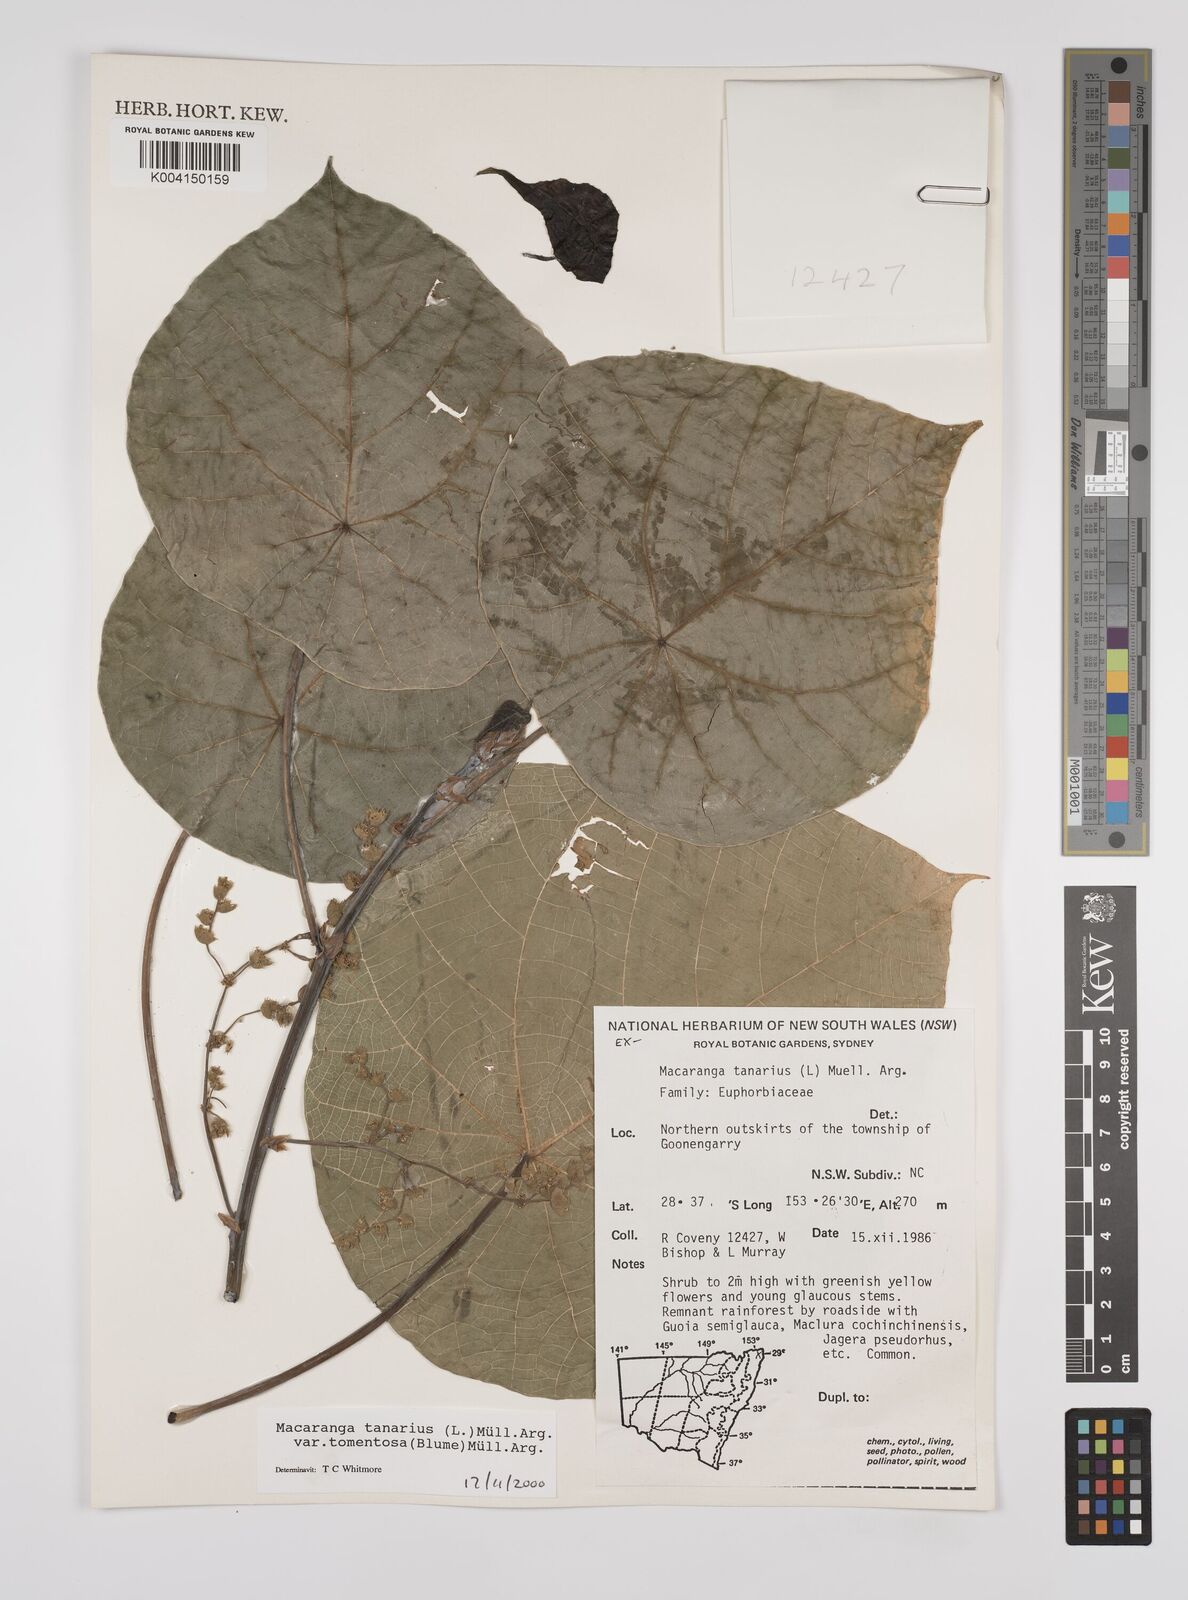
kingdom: Plantae
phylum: Tracheophyta
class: Magnoliopsida
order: Malpighiales
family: Euphorbiaceae
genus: Macaranga
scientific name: Macaranga tanarius
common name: Parasol leaf tree
